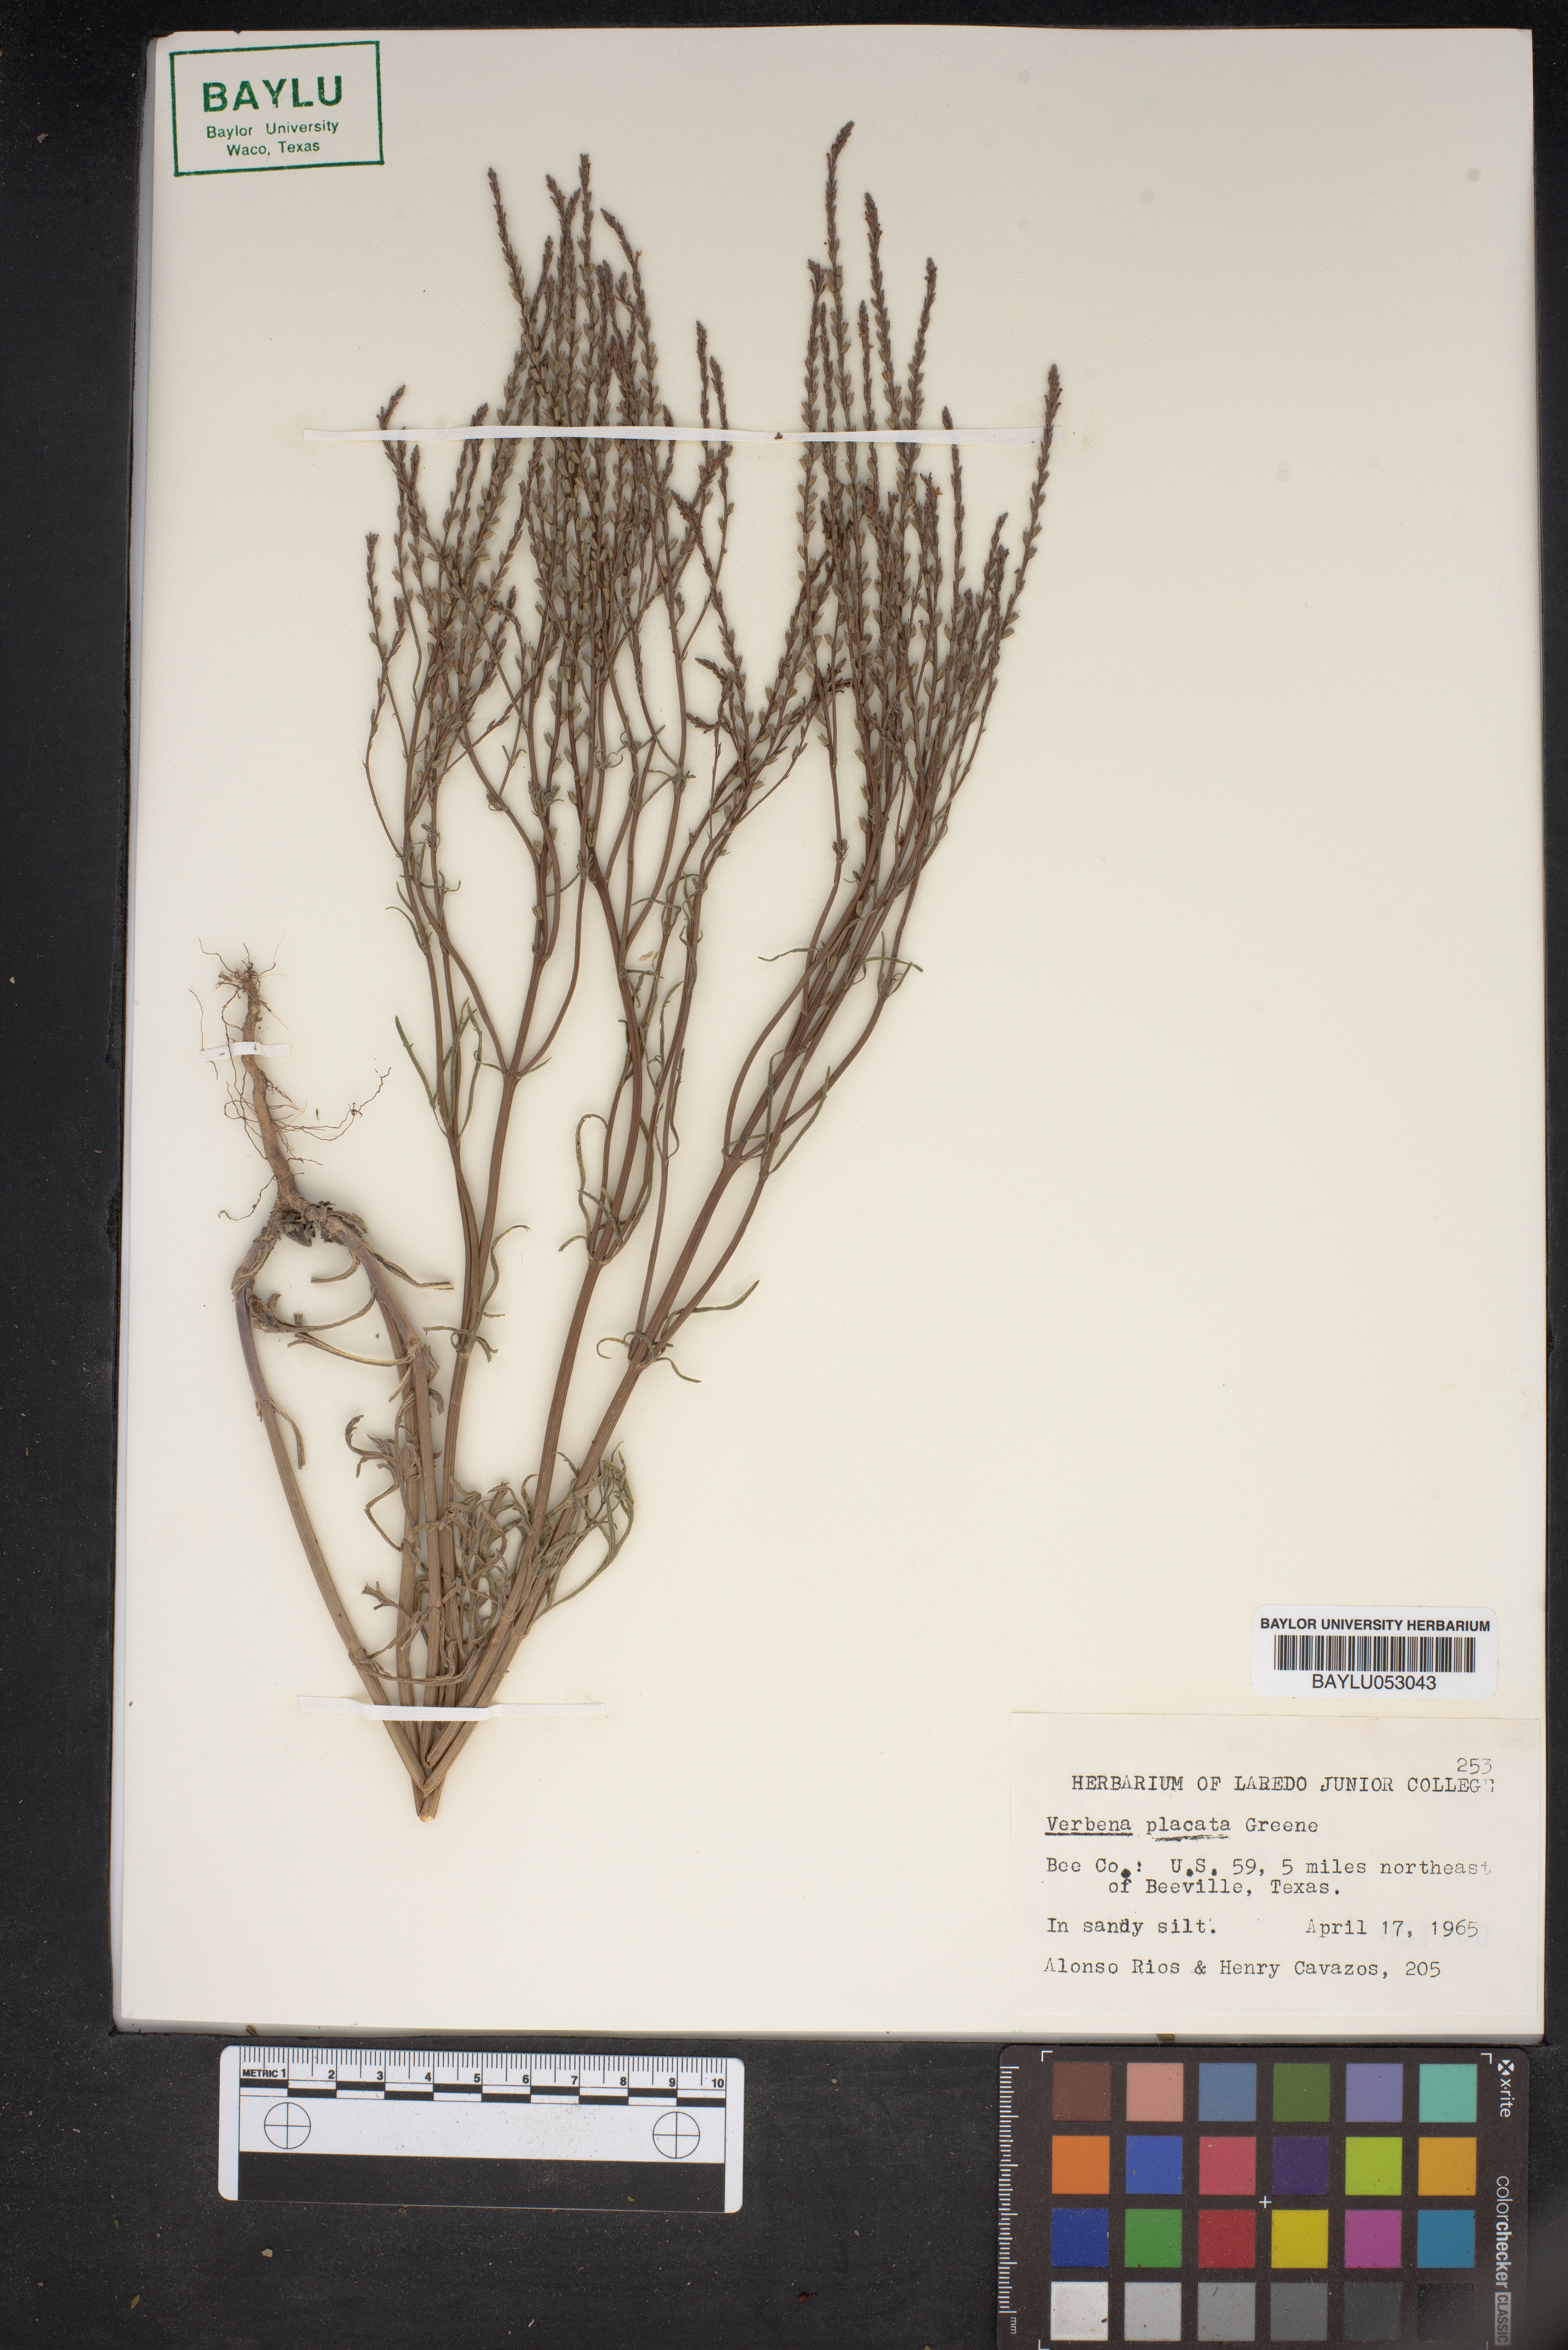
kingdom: Plantae
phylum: Tracheophyta
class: Magnoliopsida
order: Lamiales
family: Verbenaceae
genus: Verbena
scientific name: Verbena plicata
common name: Fan-leaf vervain
